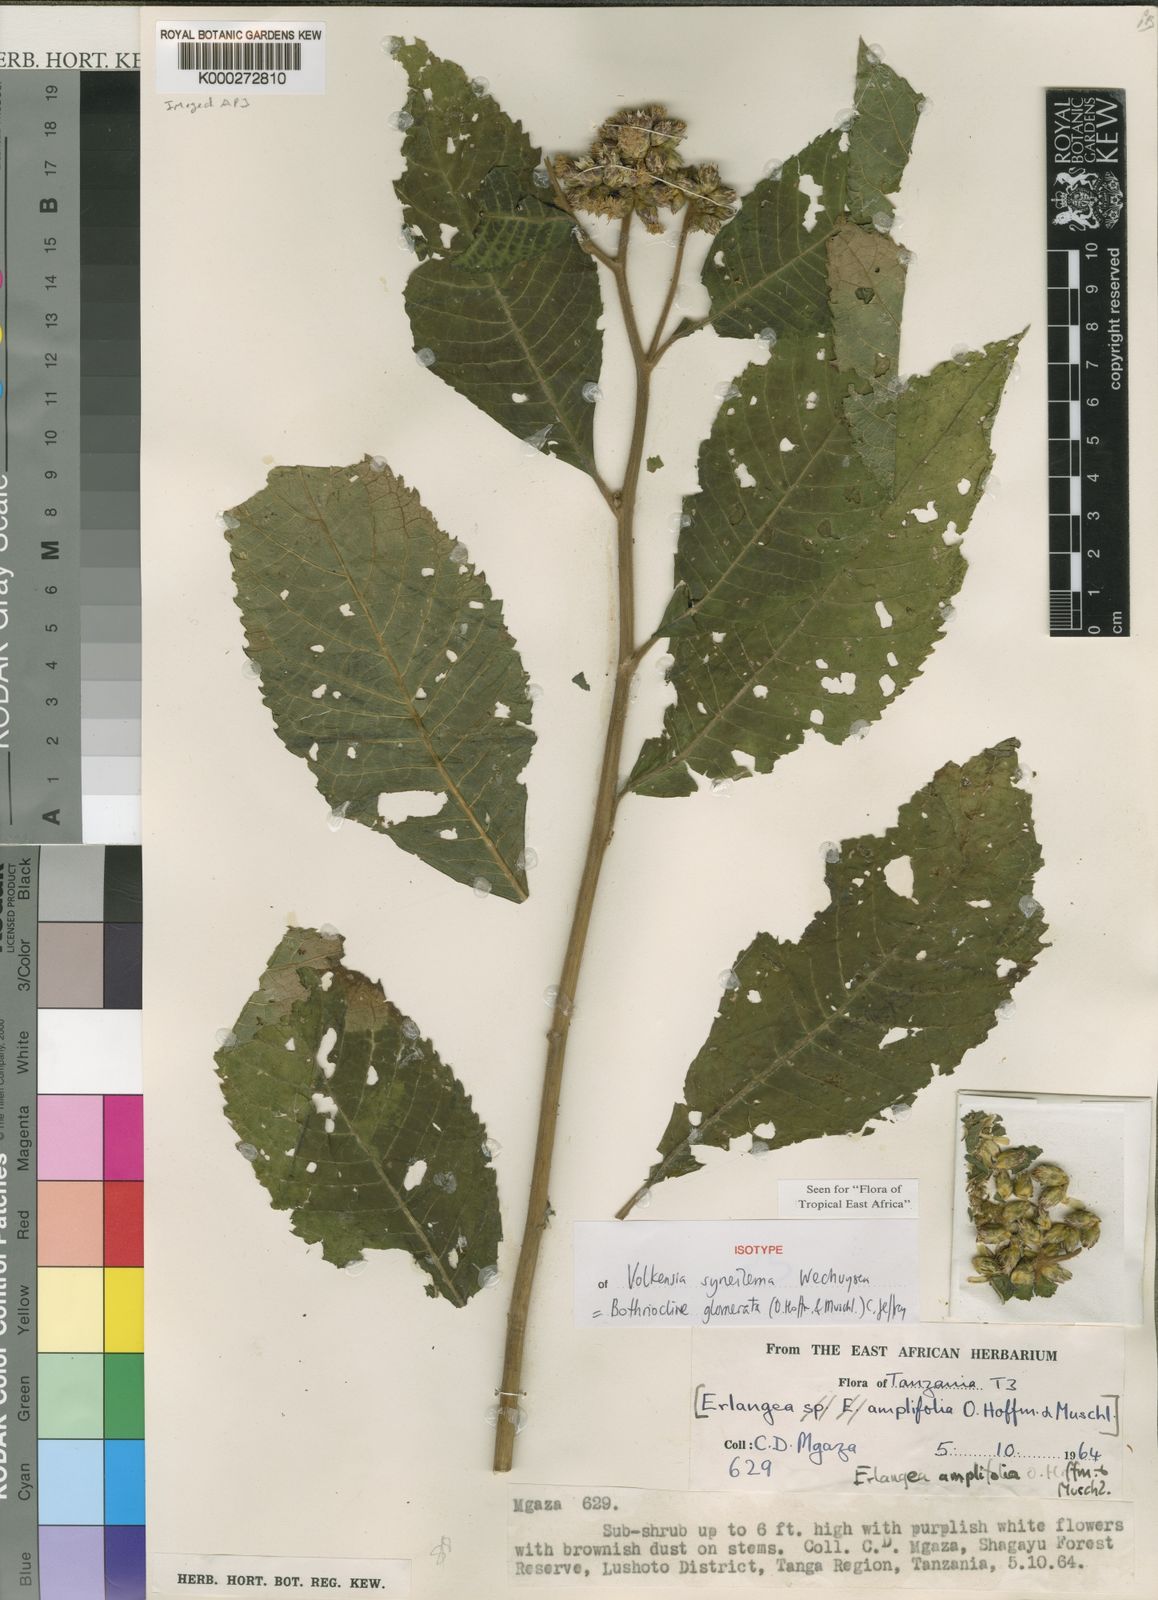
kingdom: Plantae
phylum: Tracheophyta
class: Magnoliopsida
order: Asterales
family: Asteraceae
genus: Bothriocline
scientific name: Bothriocline glomerata
